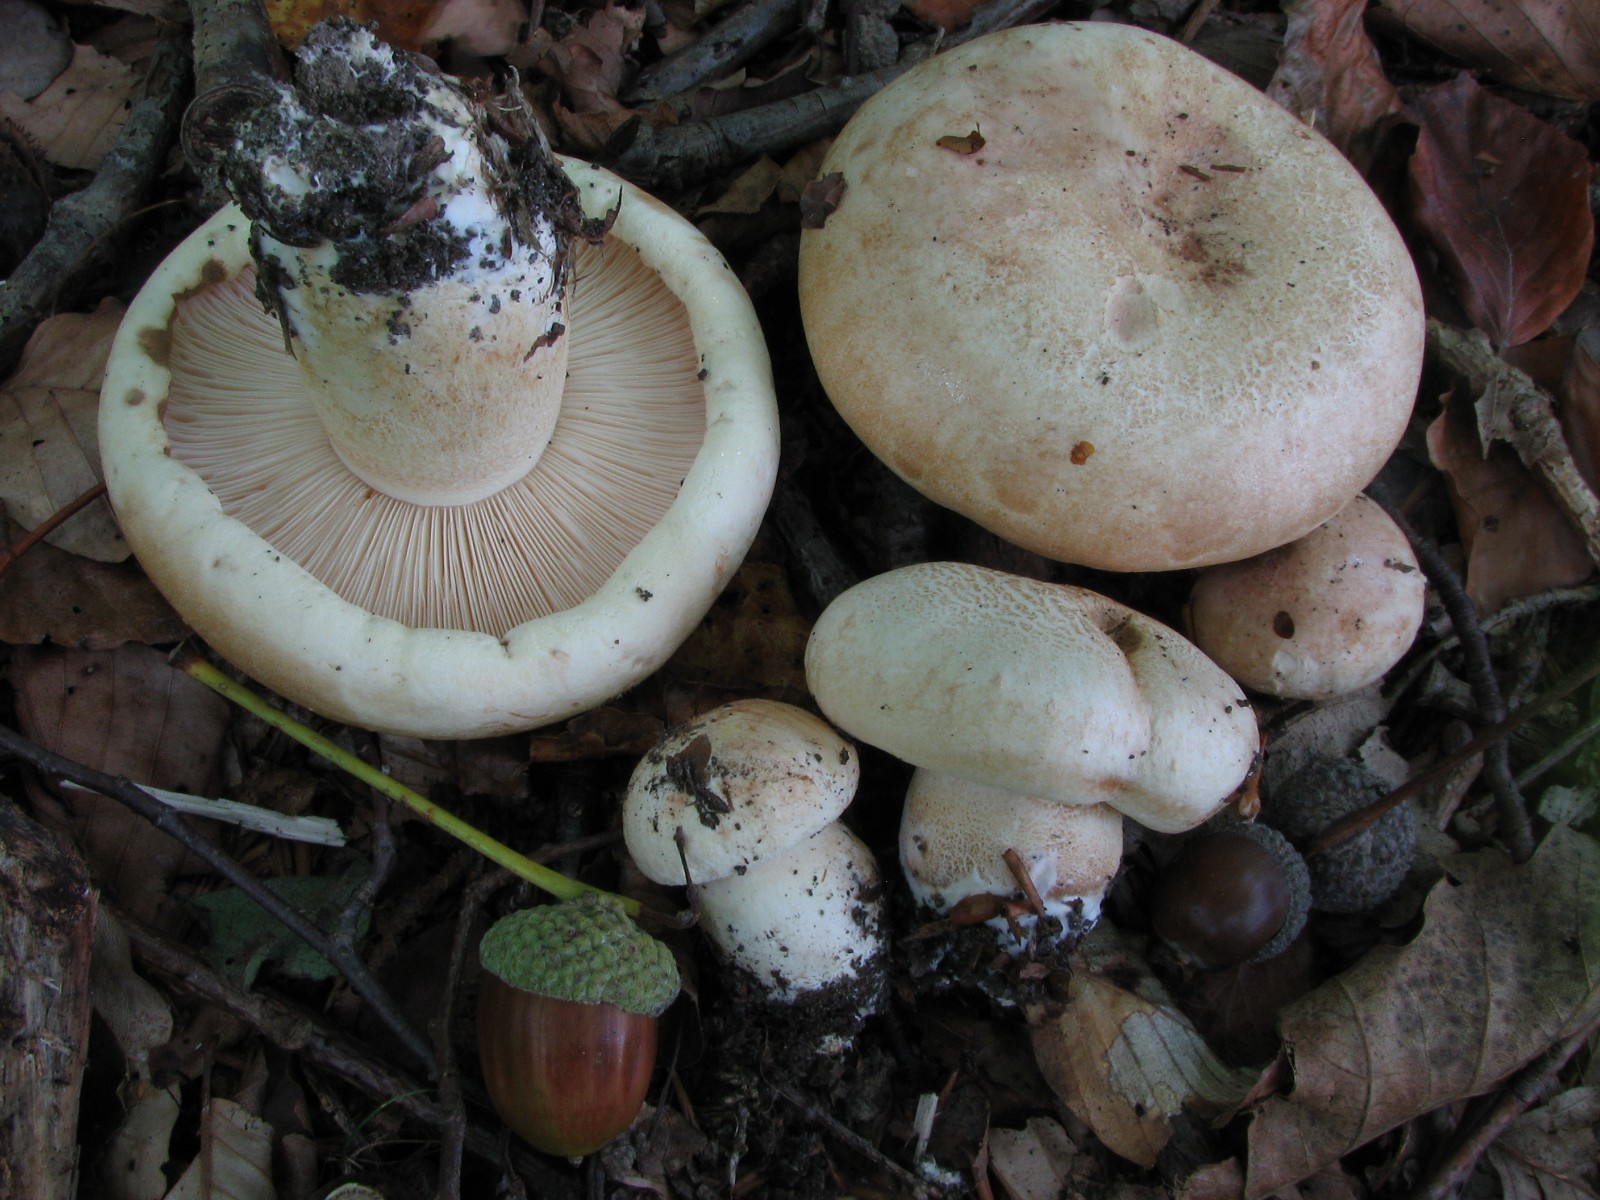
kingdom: Fungi
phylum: Basidiomycota
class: Agaricomycetes
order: Agaricales
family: Tricholomataceae
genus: Tricholoma
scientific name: Tricholoma acerbum
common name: stor ridderhat
